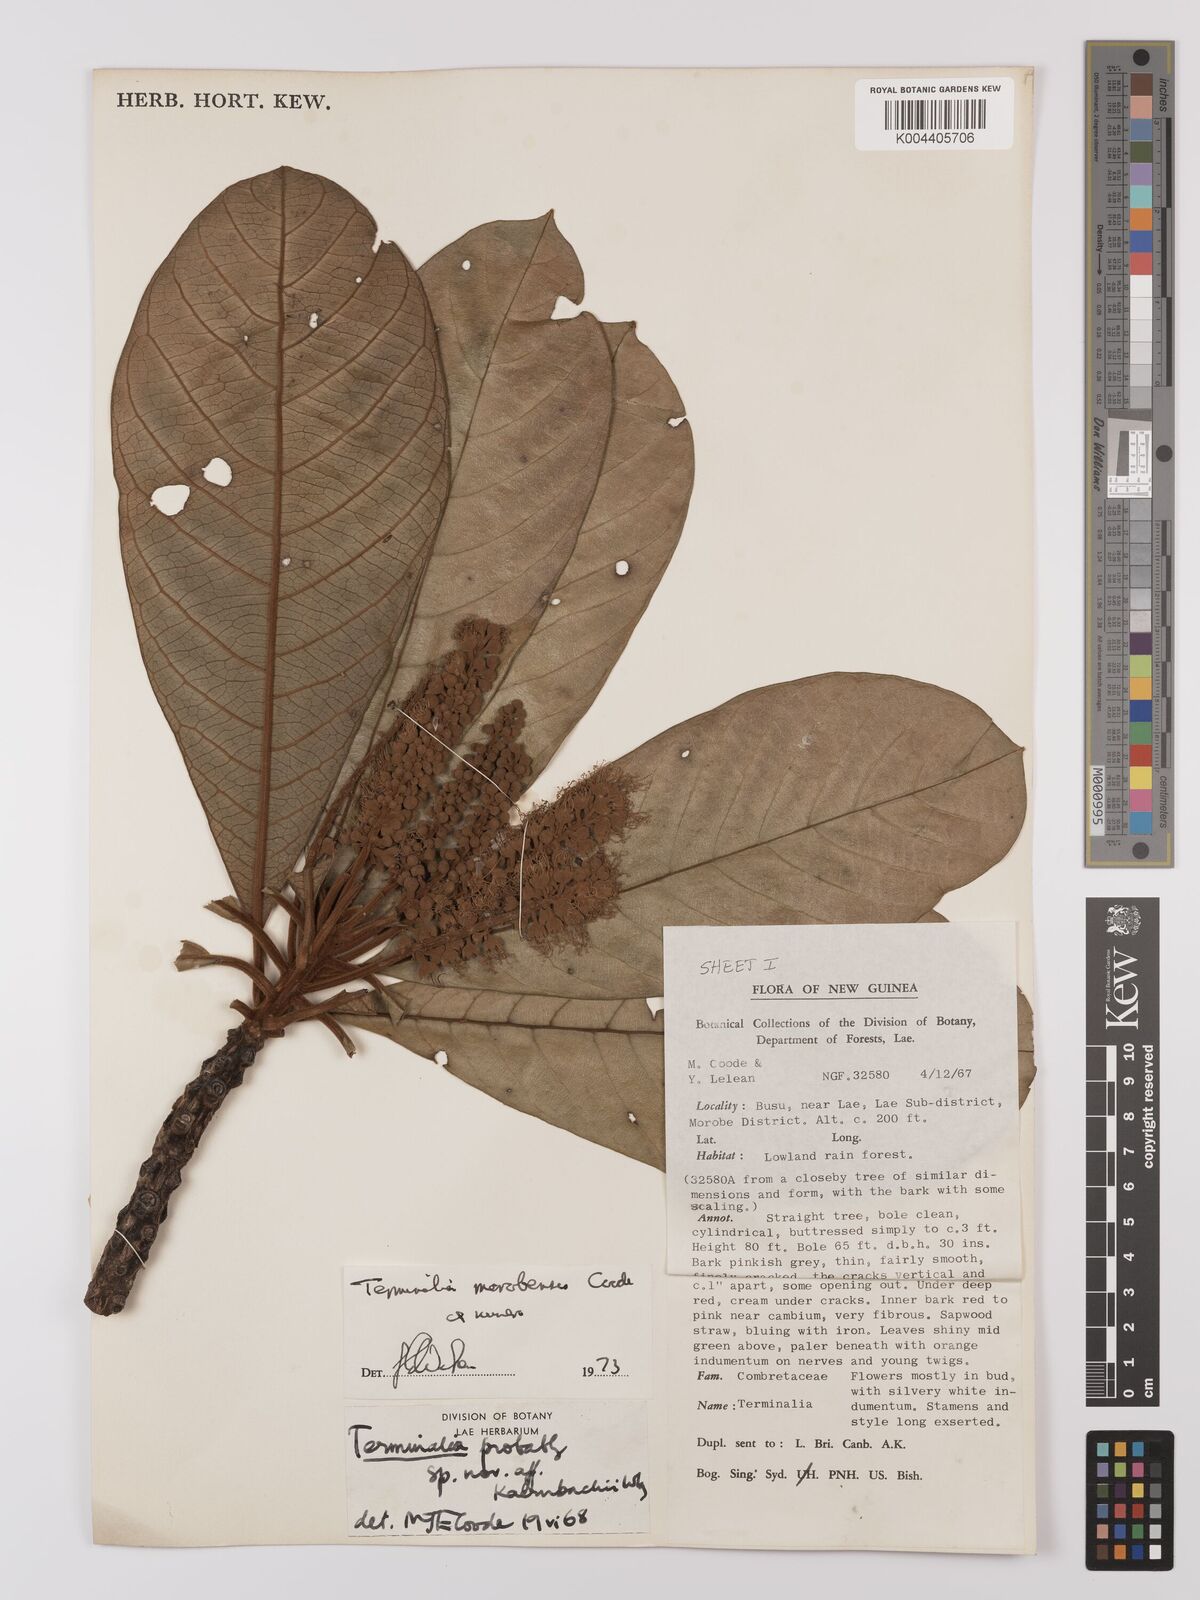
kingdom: Plantae
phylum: Tracheophyta
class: Magnoliopsida
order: Myrtales
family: Combretaceae
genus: Terminalia
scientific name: Terminalia morobensis
